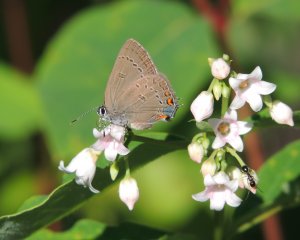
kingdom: Animalia
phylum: Arthropoda
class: Insecta
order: Lepidoptera
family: Lycaenidae
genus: Satyrium
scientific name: Satyrium edwardsii
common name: Edwards' Hairstreak
